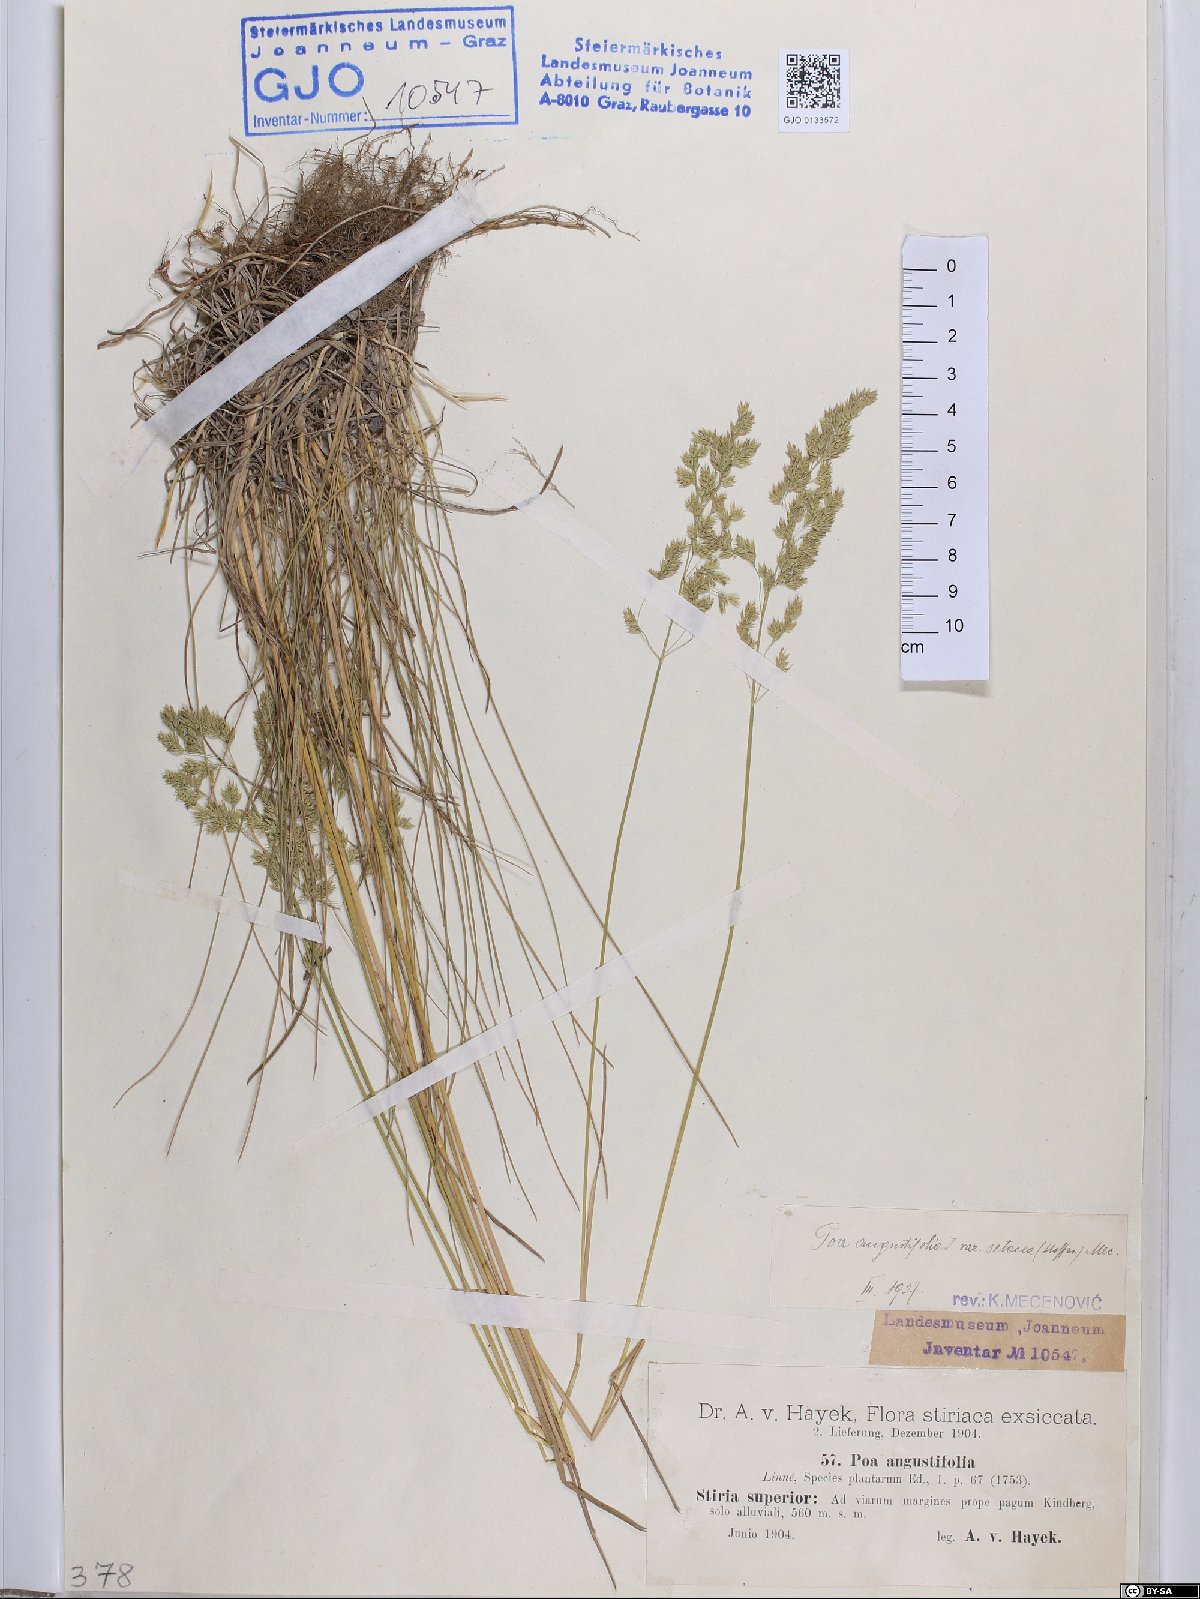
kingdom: Plantae
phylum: Tracheophyta
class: Liliopsida
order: Poales
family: Poaceae
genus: Poa
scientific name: Poa angustifolia
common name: Narrow-leaved meadow-grass
